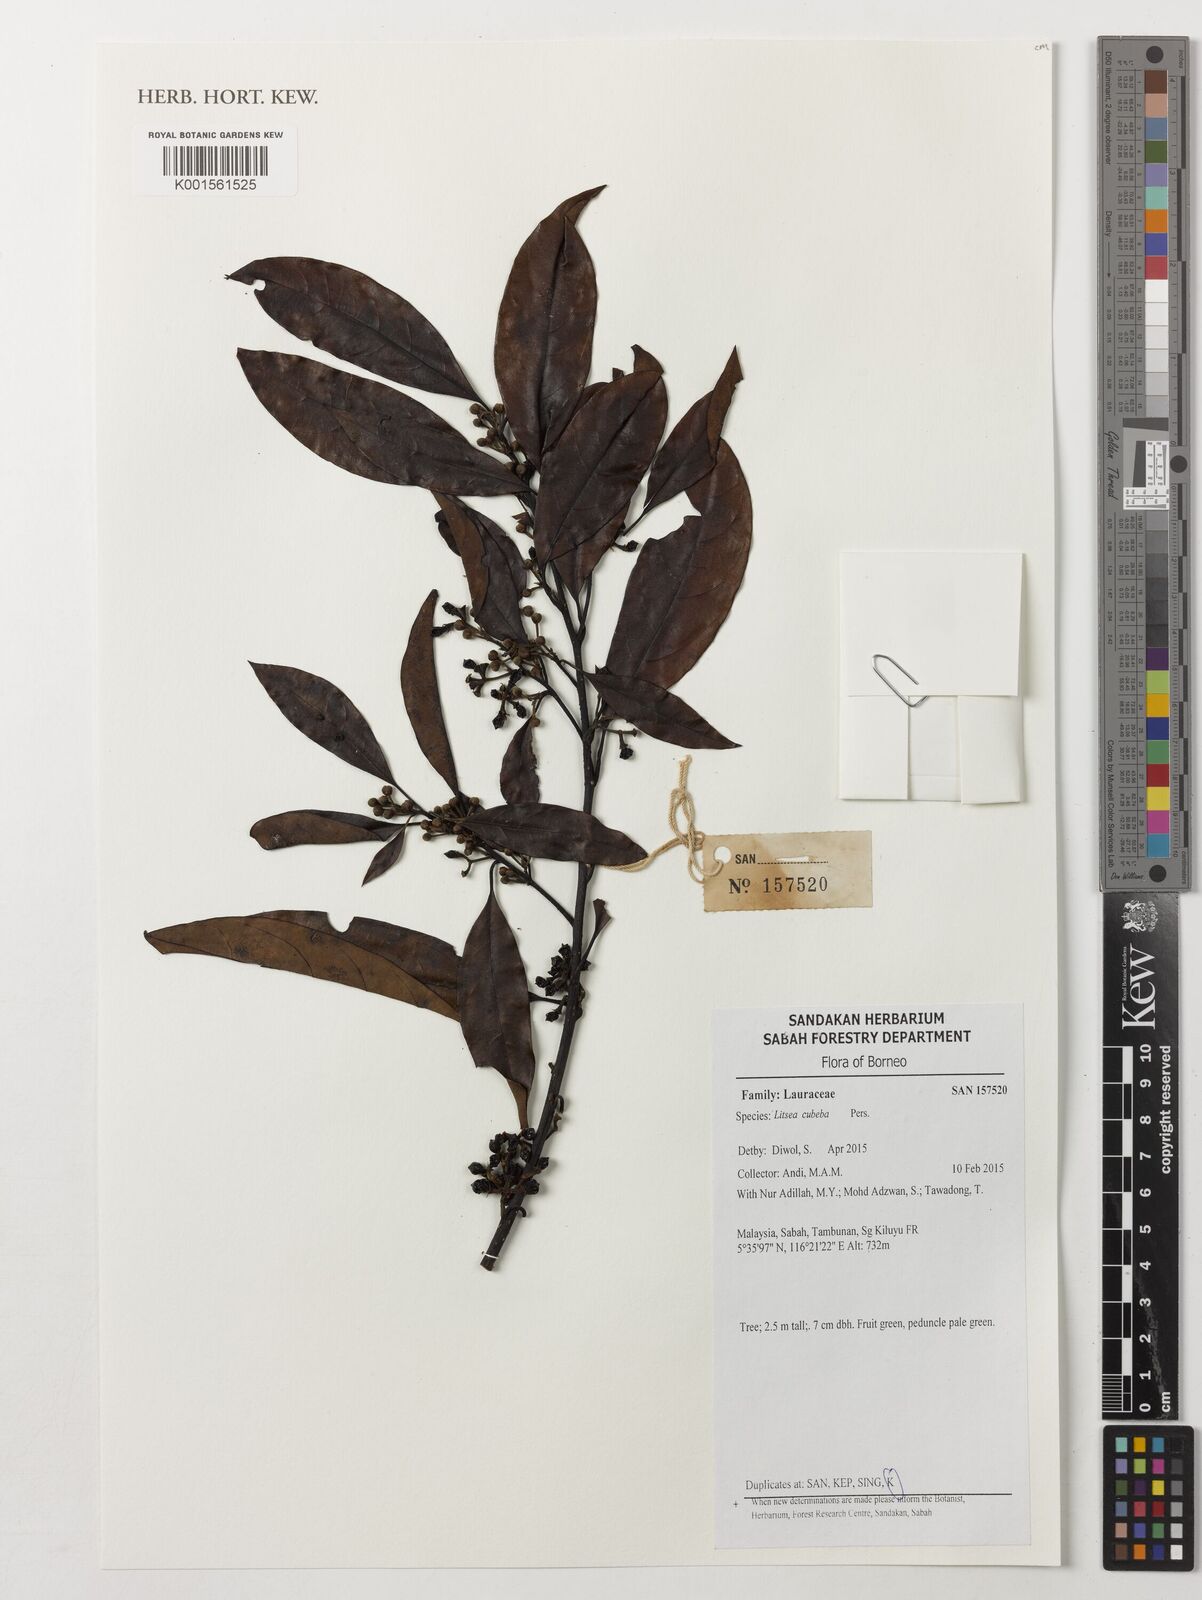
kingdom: Plantae
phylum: Tracheophyta
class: Magnoliopsida
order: Laurales
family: Lauraceae
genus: Litsea
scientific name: Litsea cubeba
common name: Mountain-pepper
